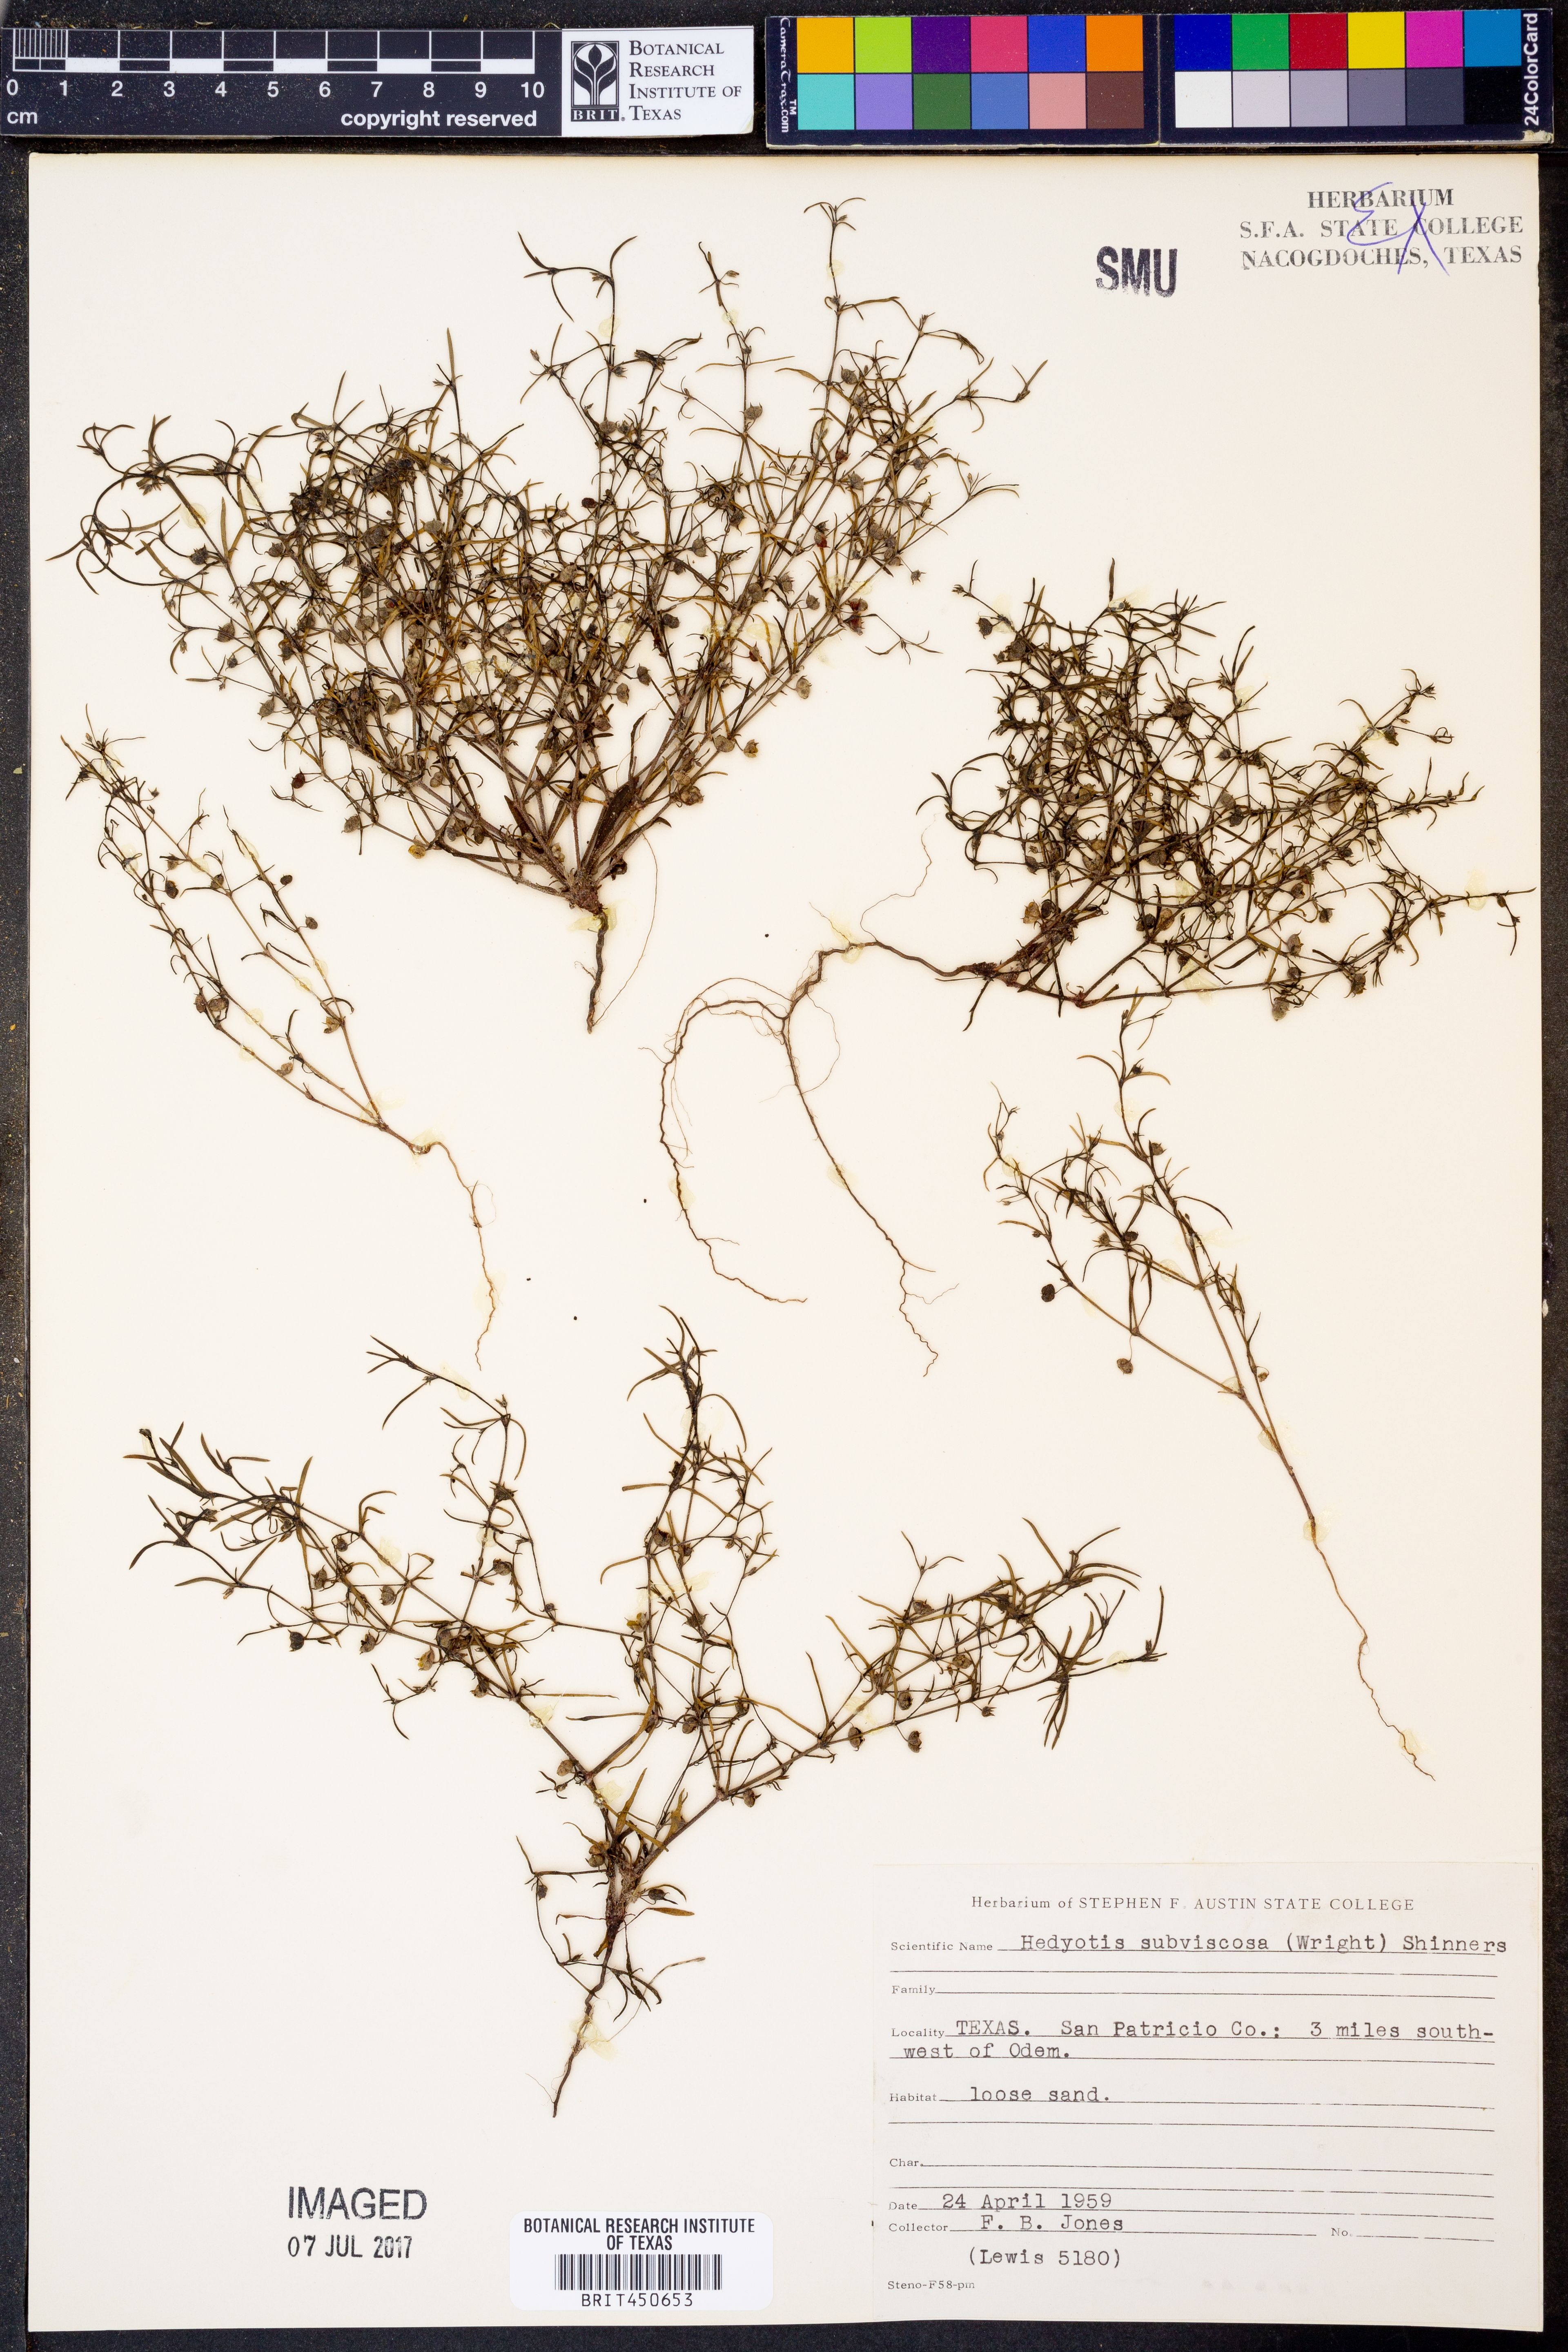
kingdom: Plantae
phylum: Tracheophyta
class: Magnoliopsida
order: Gentianales
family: Rubiaceae
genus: Houstonia
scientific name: Houstonia subviscosa
